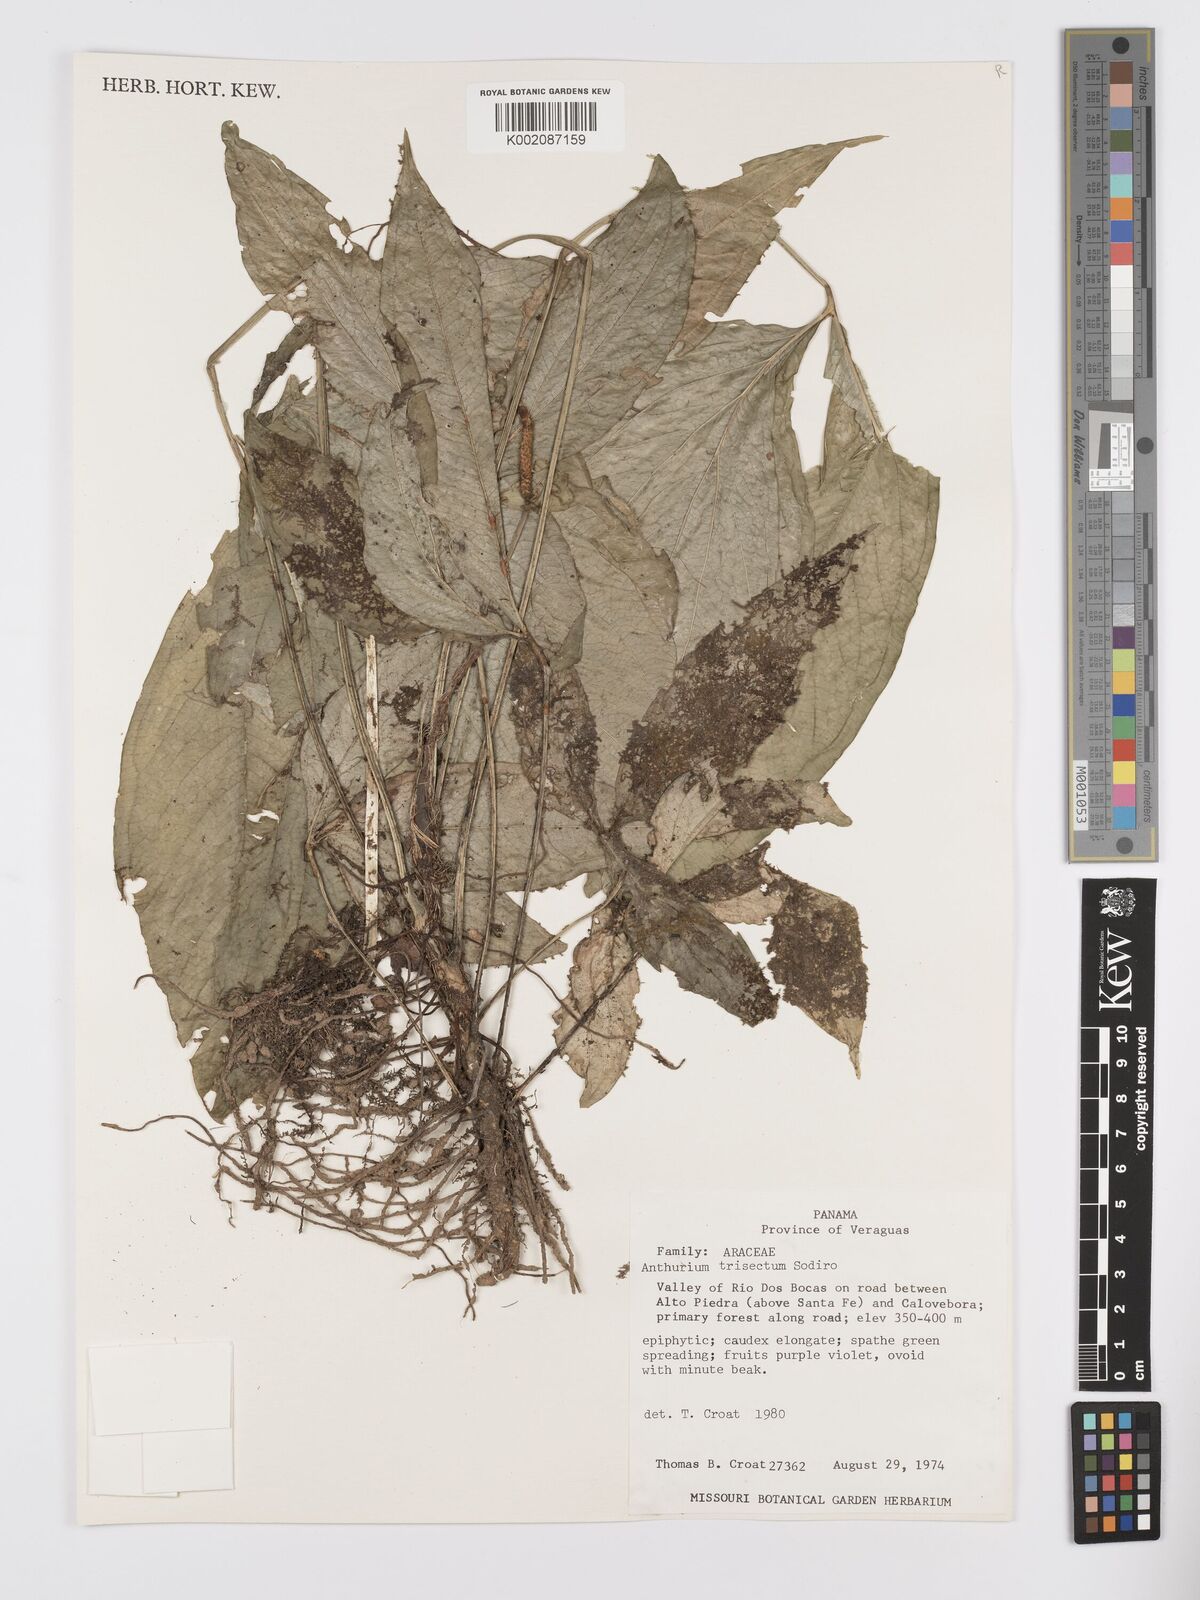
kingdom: Plantae
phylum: Tracheophyta
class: Liliopsida
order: Alismatales
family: Araceae
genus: Anthurium
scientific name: Anthurium trisectum
